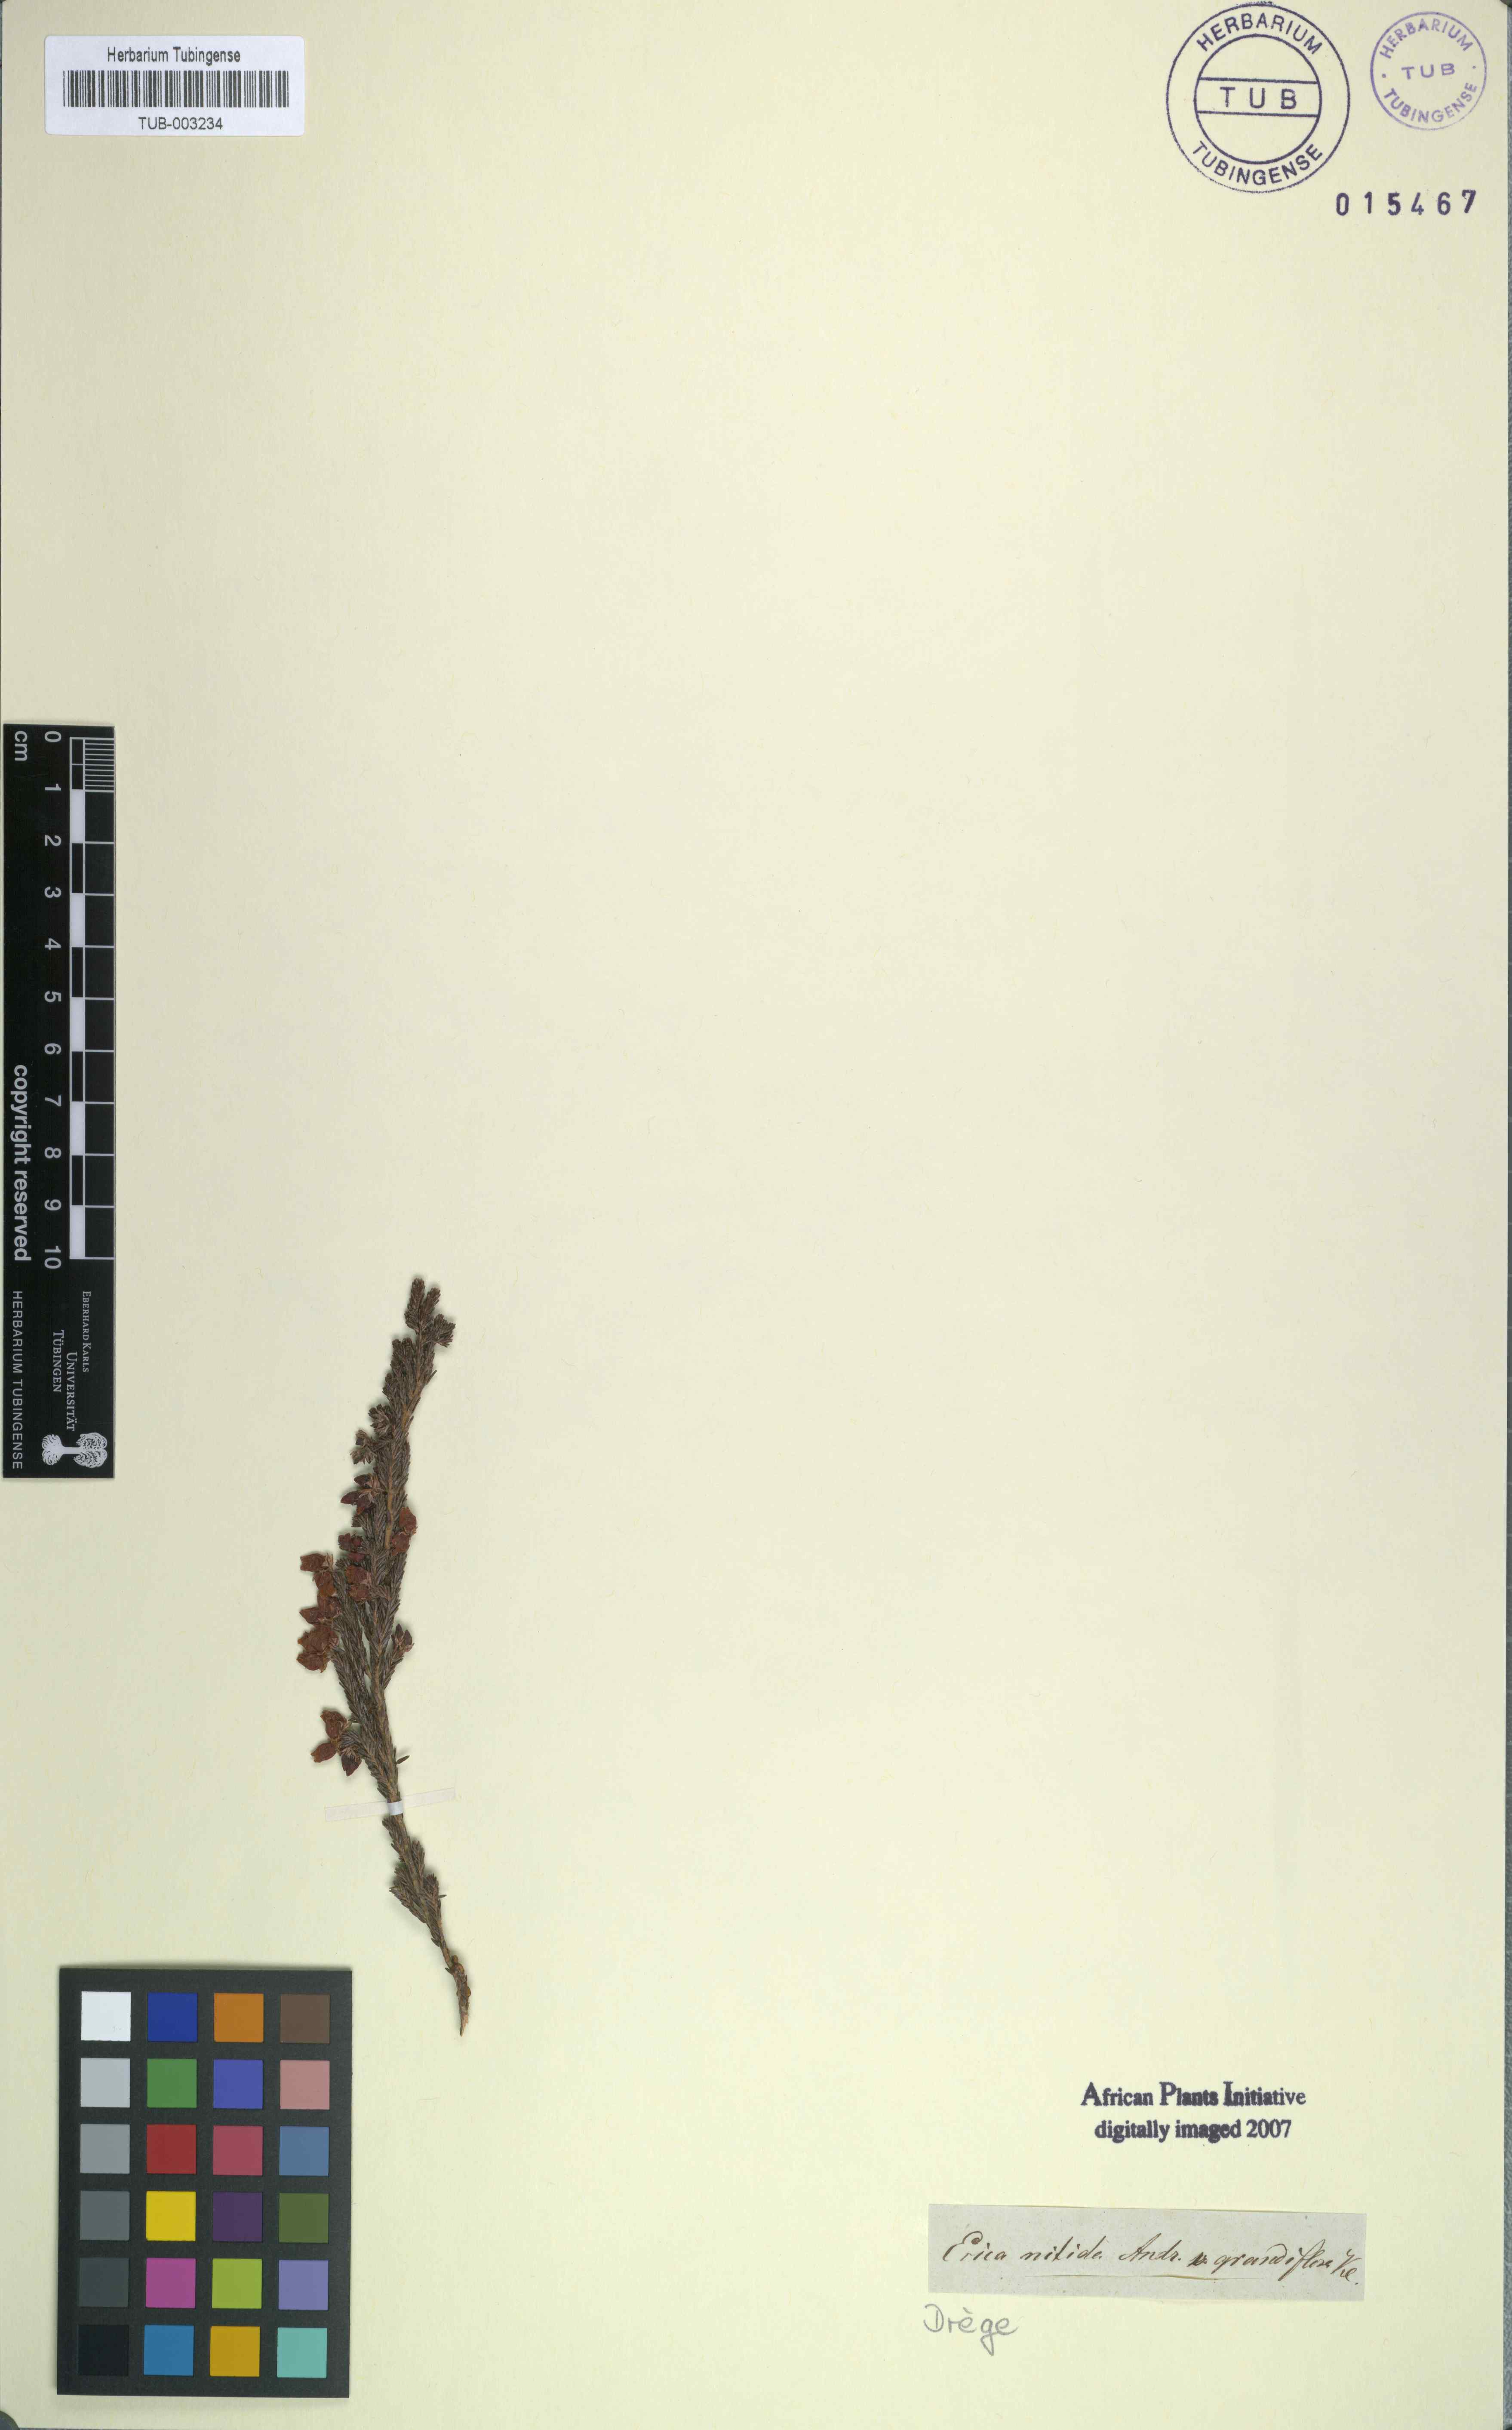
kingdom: Plantae
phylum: Tracheophyta
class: Magnoliopsida
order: Ericales
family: Ericaceae
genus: Erica
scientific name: Erica tragulifera
